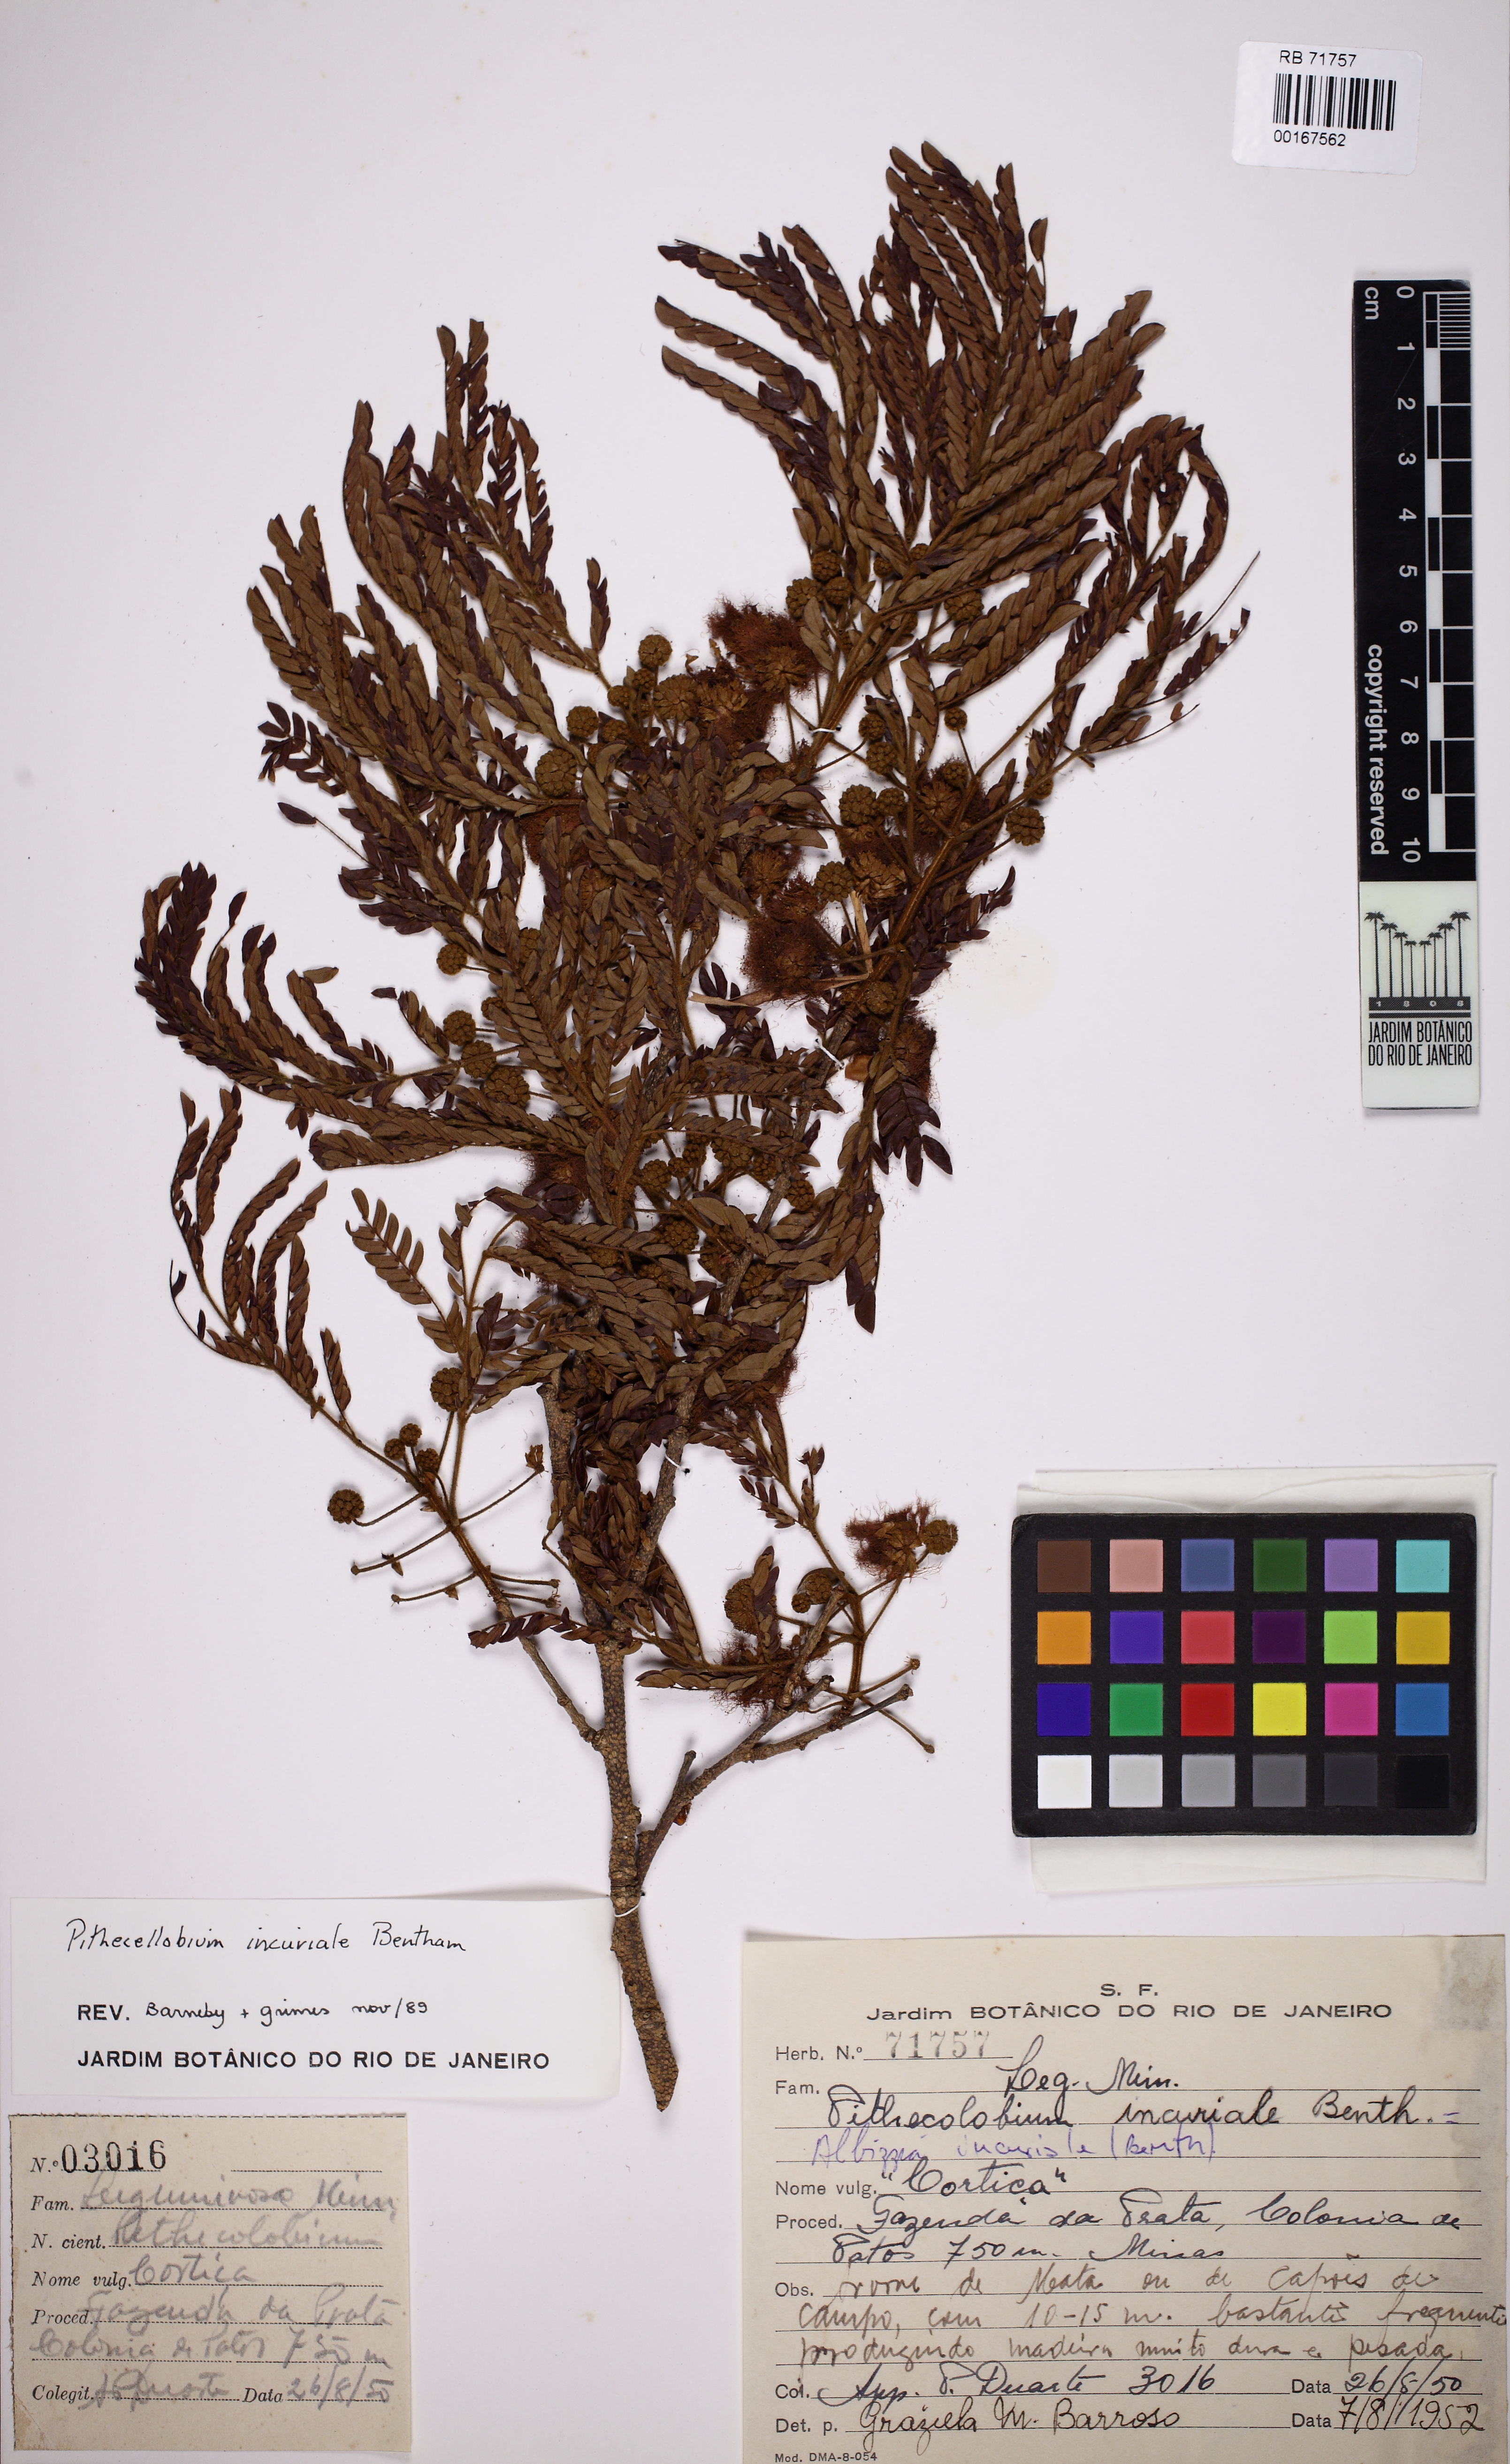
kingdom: Plantae
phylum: Tracheophyta
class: Magnoliopsida
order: Fabales
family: Fabaceae
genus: Leucochloron
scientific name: Leucochloron incuriale
